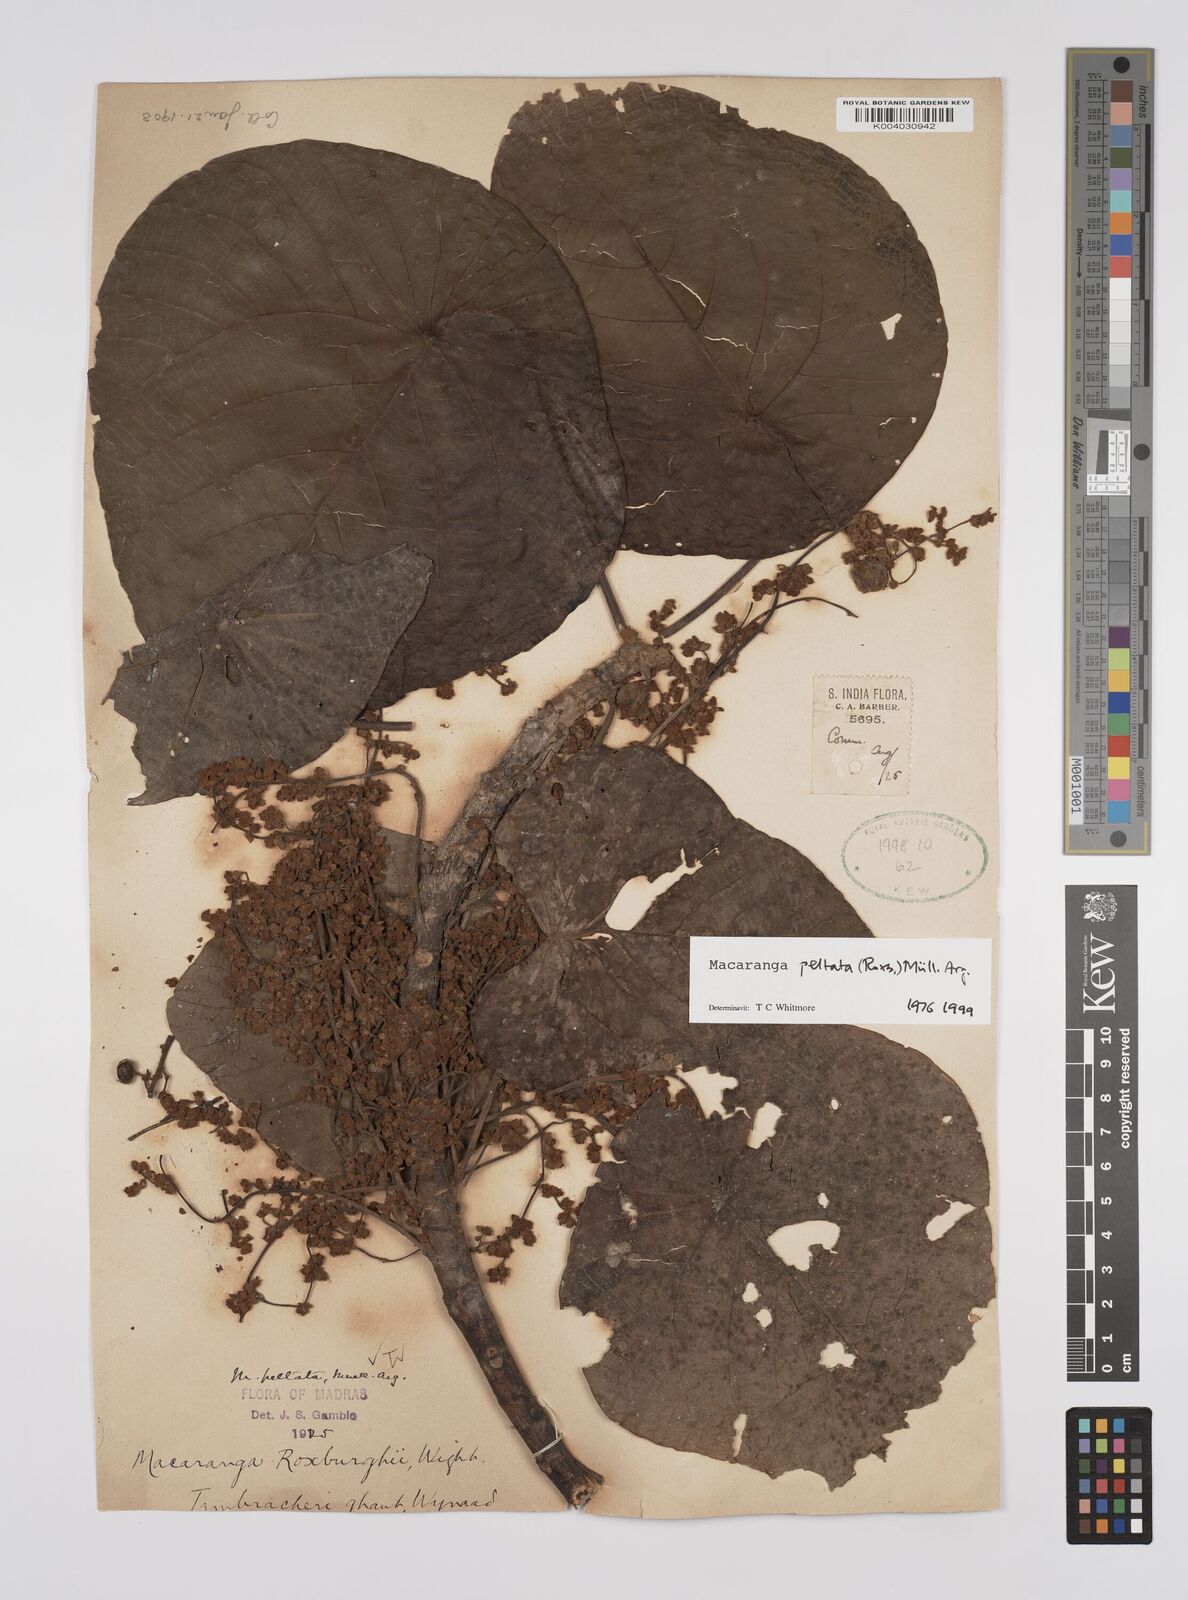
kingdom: Plantae
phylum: Tracheophyta
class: Magnoliopsida
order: Malpighiales
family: Euphorbiaceae
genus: Macaranga
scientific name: Macaranga peltata
